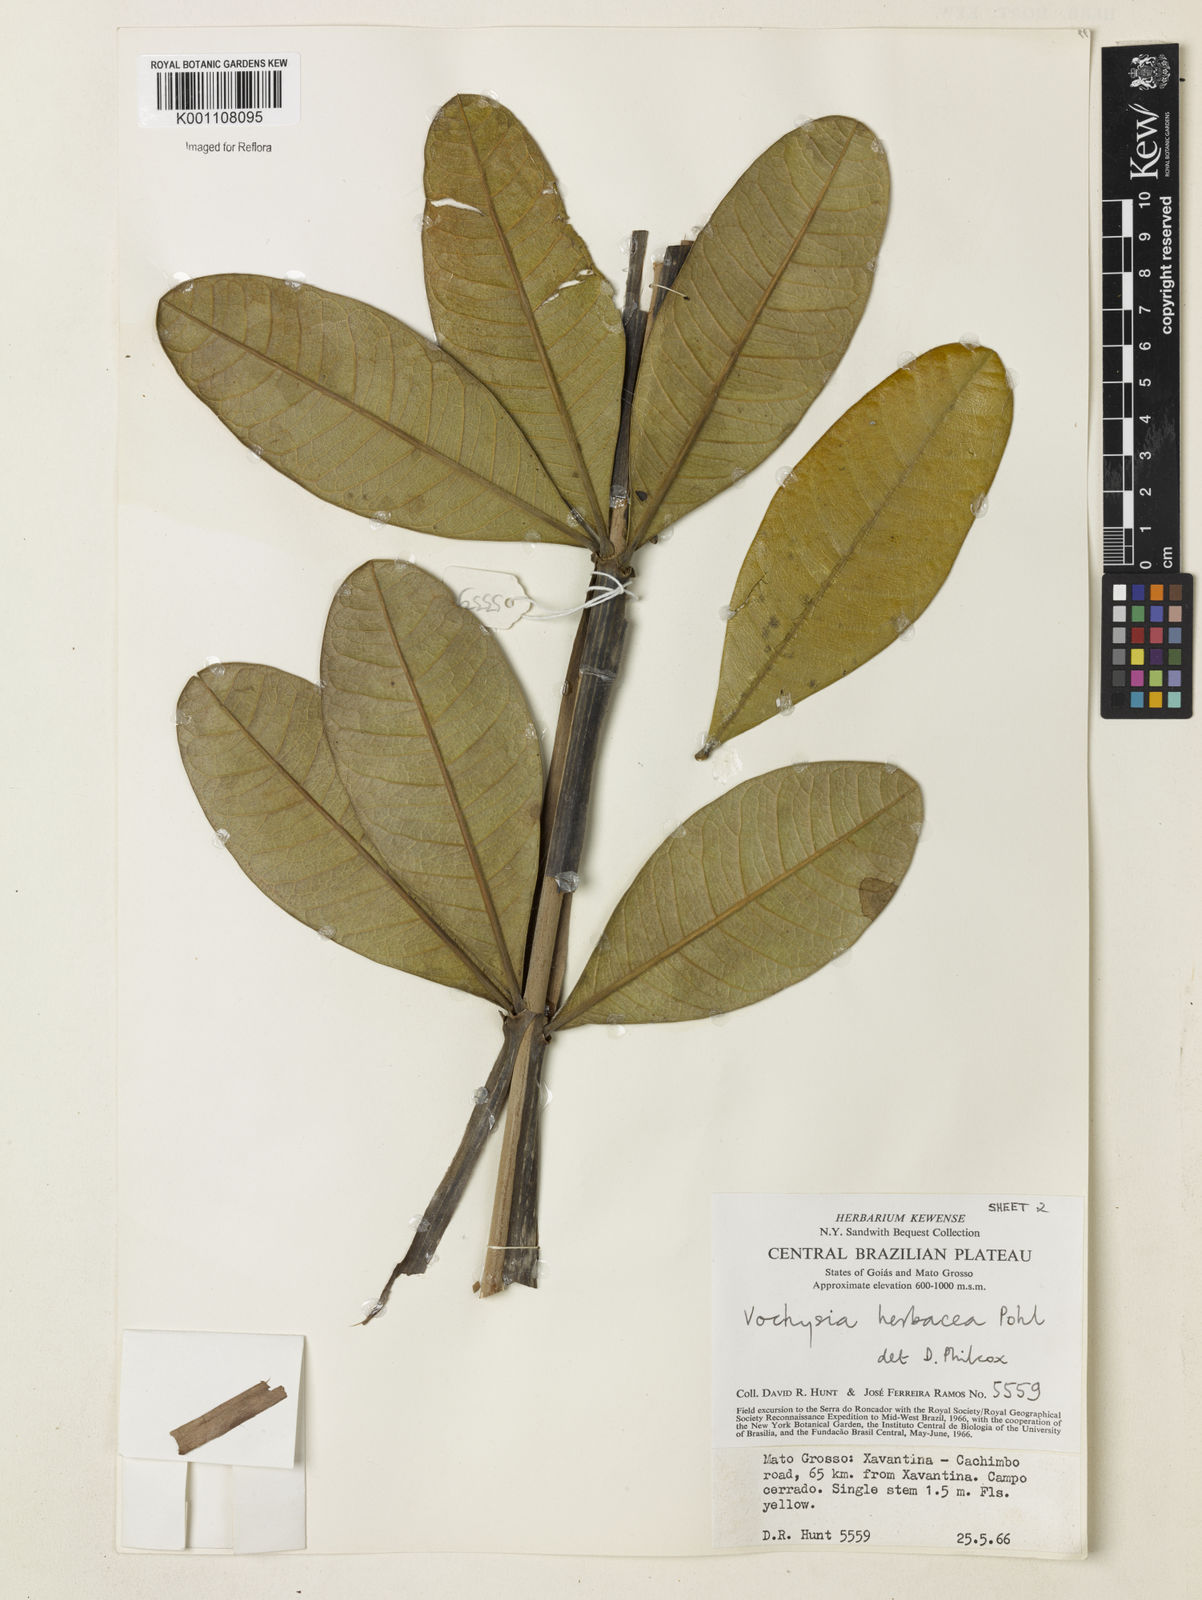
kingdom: Plantae
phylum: Tracheophyta
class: Magnoliopsida
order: Myrtales
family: Vochysiaceae
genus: Vochysia
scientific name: Vochysia herbacea
